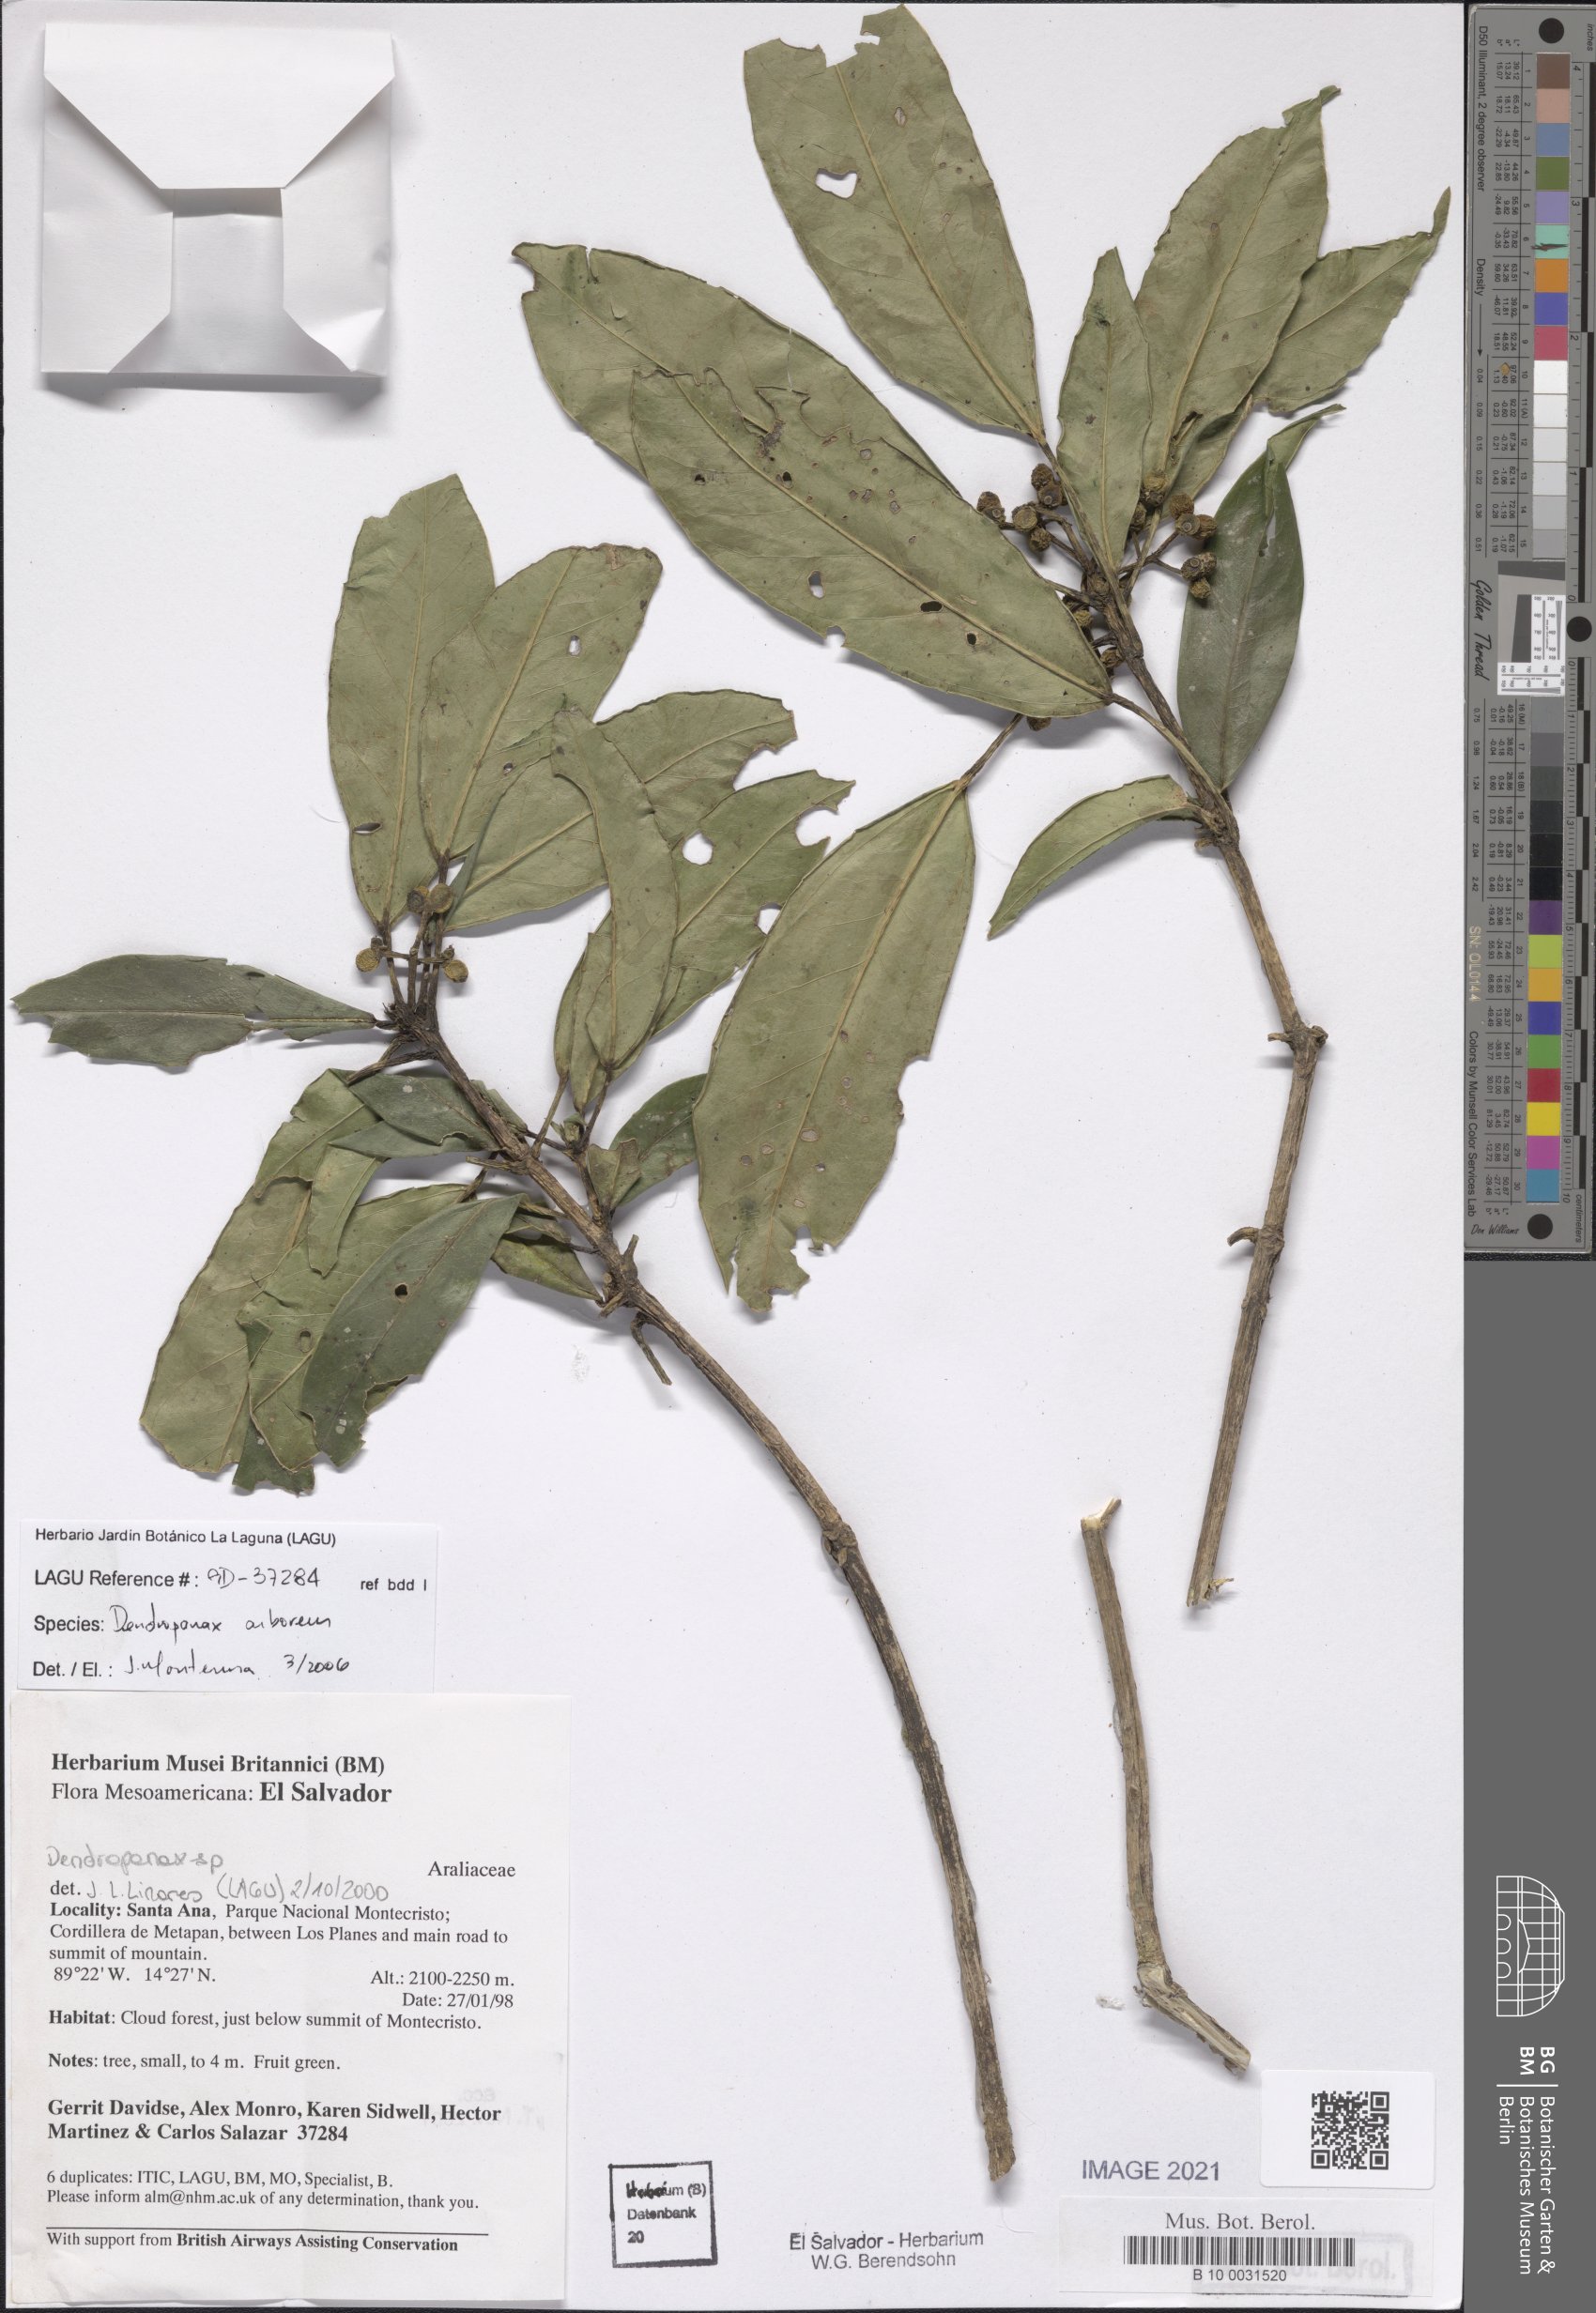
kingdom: Plantae
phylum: Tracheophyta
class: Magnoliopsida
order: Apiales
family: Araliaceae
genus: Dendropanax
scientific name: Dendropanax arboreus
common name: Potato-wood
